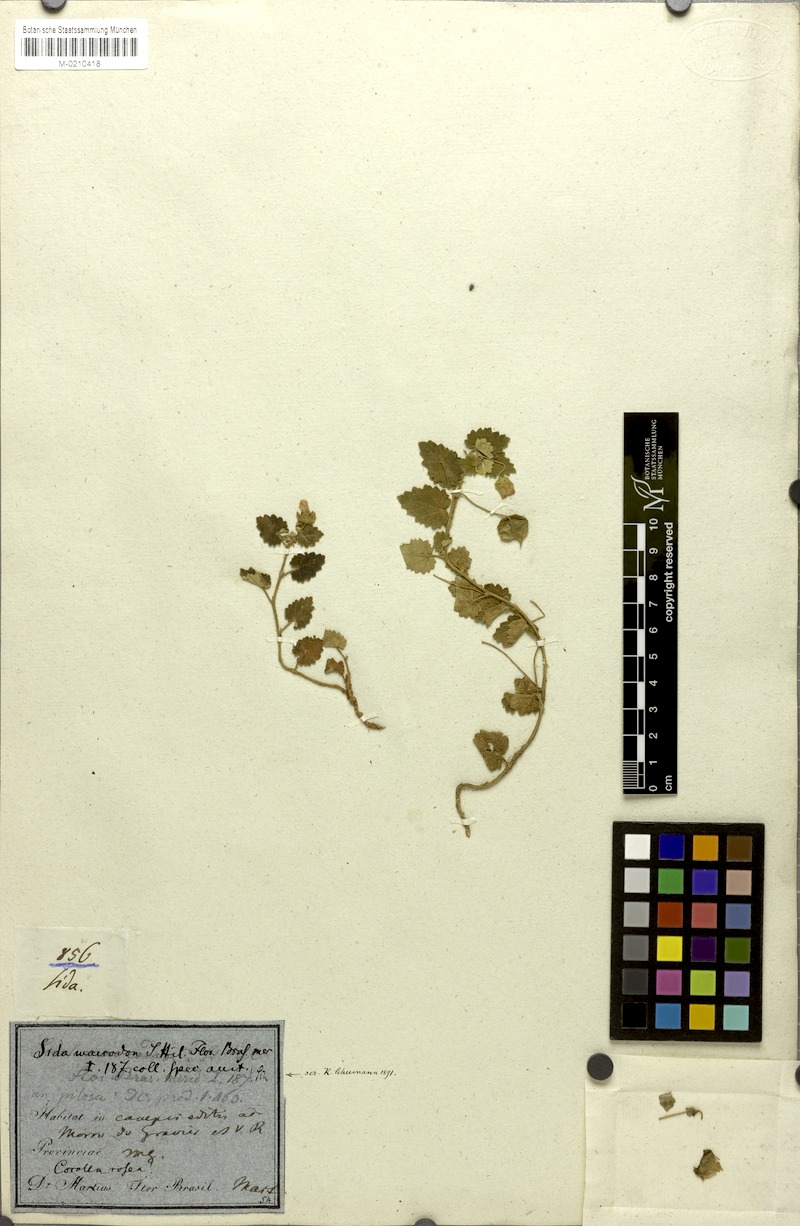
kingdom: Plantae
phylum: Tracheophyta
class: Magnoliopsida
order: Malvales
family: Malvaceae
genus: Krapovickasia
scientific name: Krapovickasia macrodon
